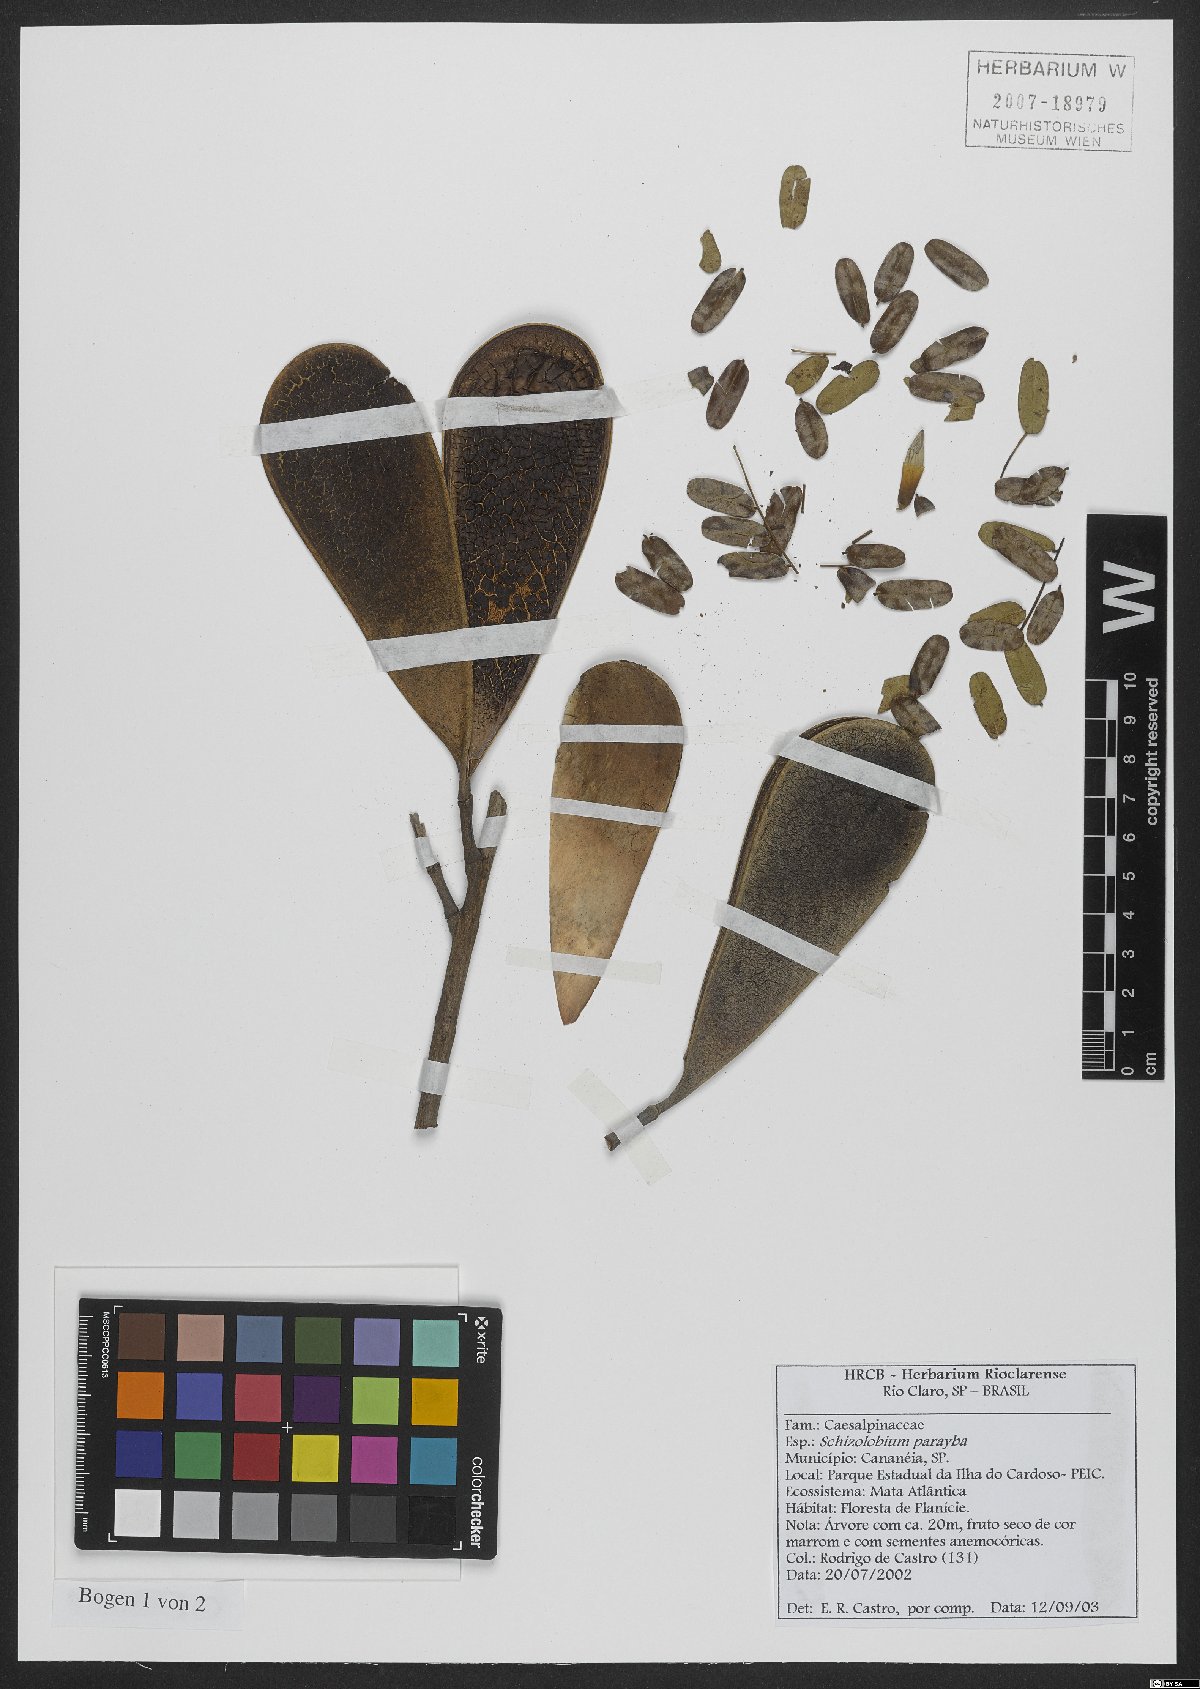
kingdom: Plantae
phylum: Tracheophyta
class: Magnoliopsida
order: Fabales
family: Fabaceae
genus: Schizolobium
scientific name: Schizolobium parahyba
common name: Brazilian firetree
